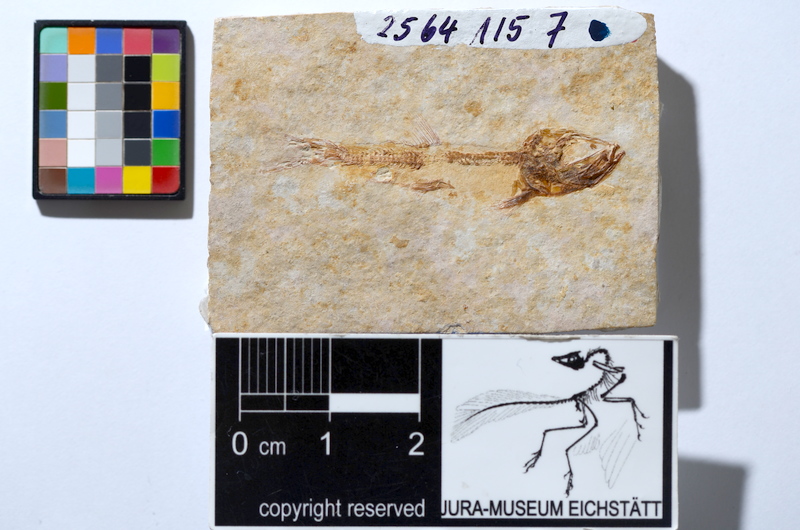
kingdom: Animalia
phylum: Chordata
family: Ascalaboidae
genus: Tharsis
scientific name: Tharsis dubius
